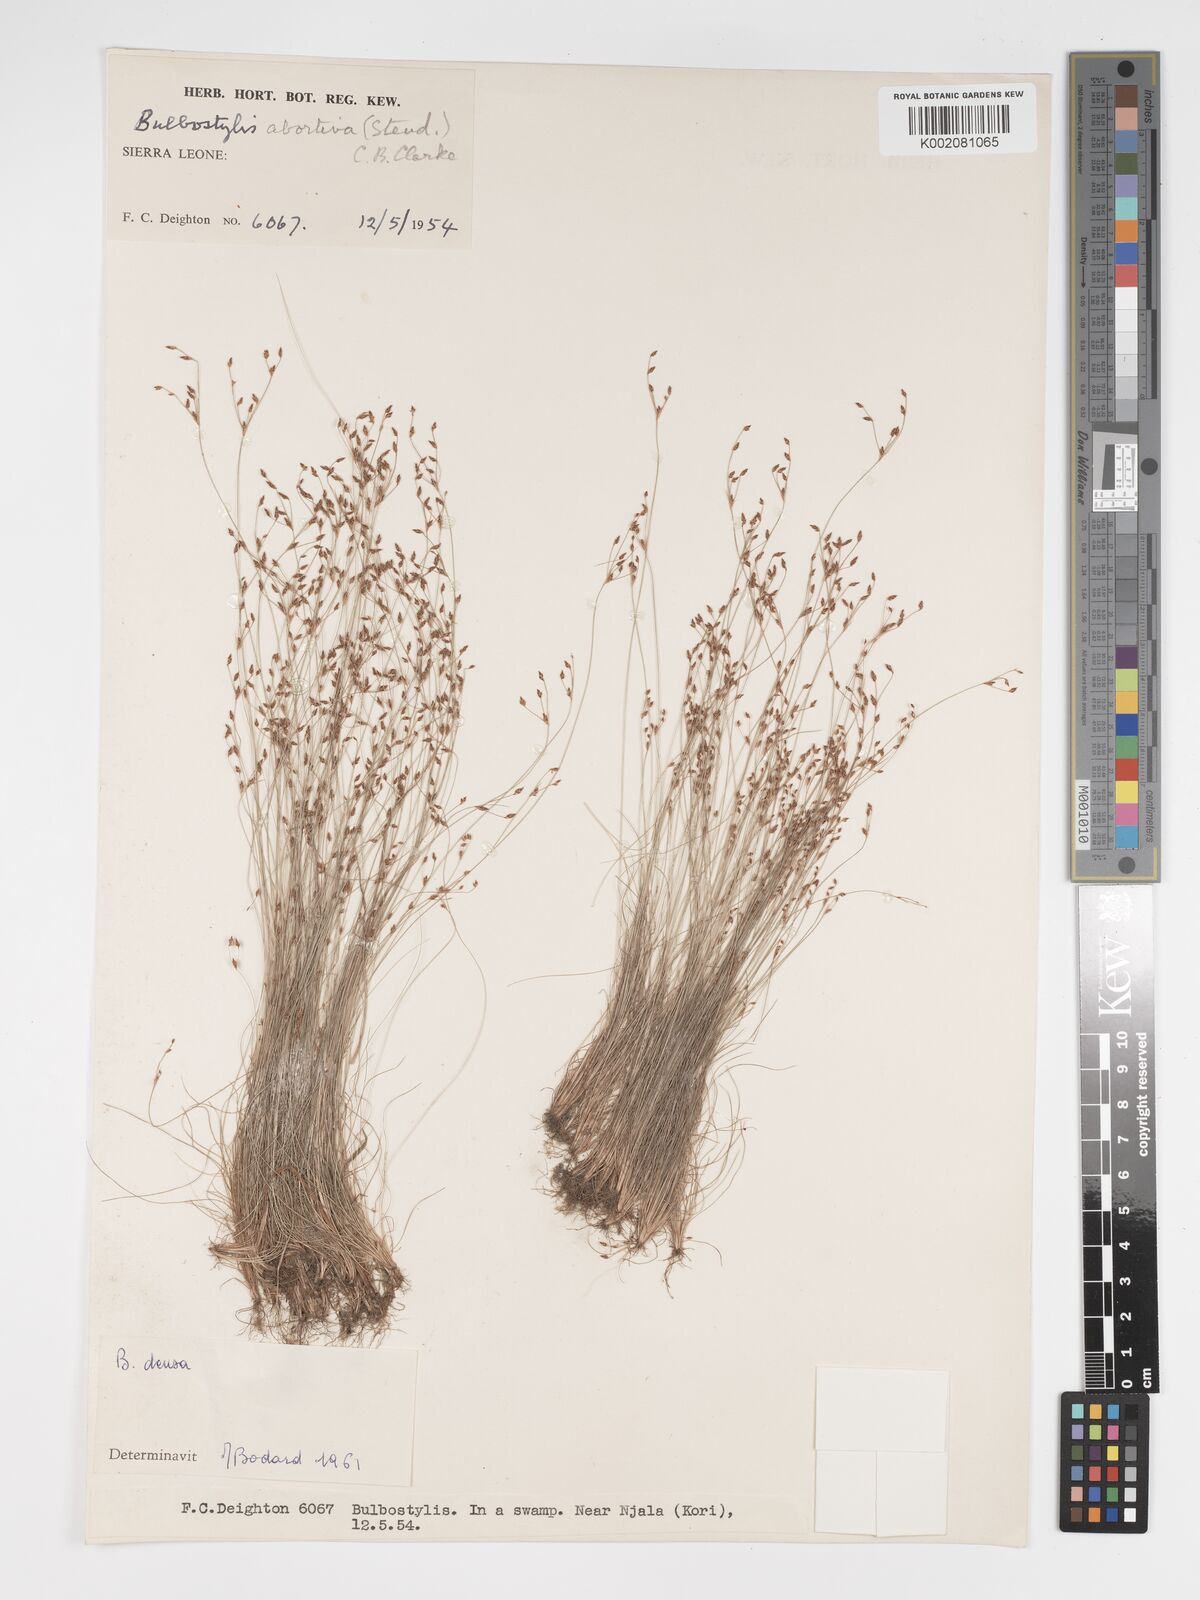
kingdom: Plantae
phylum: Tracheophyta
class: Liliopsida
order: Poales
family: Cyperaceae
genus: Bulbostylis
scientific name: Bulbostylis densa
